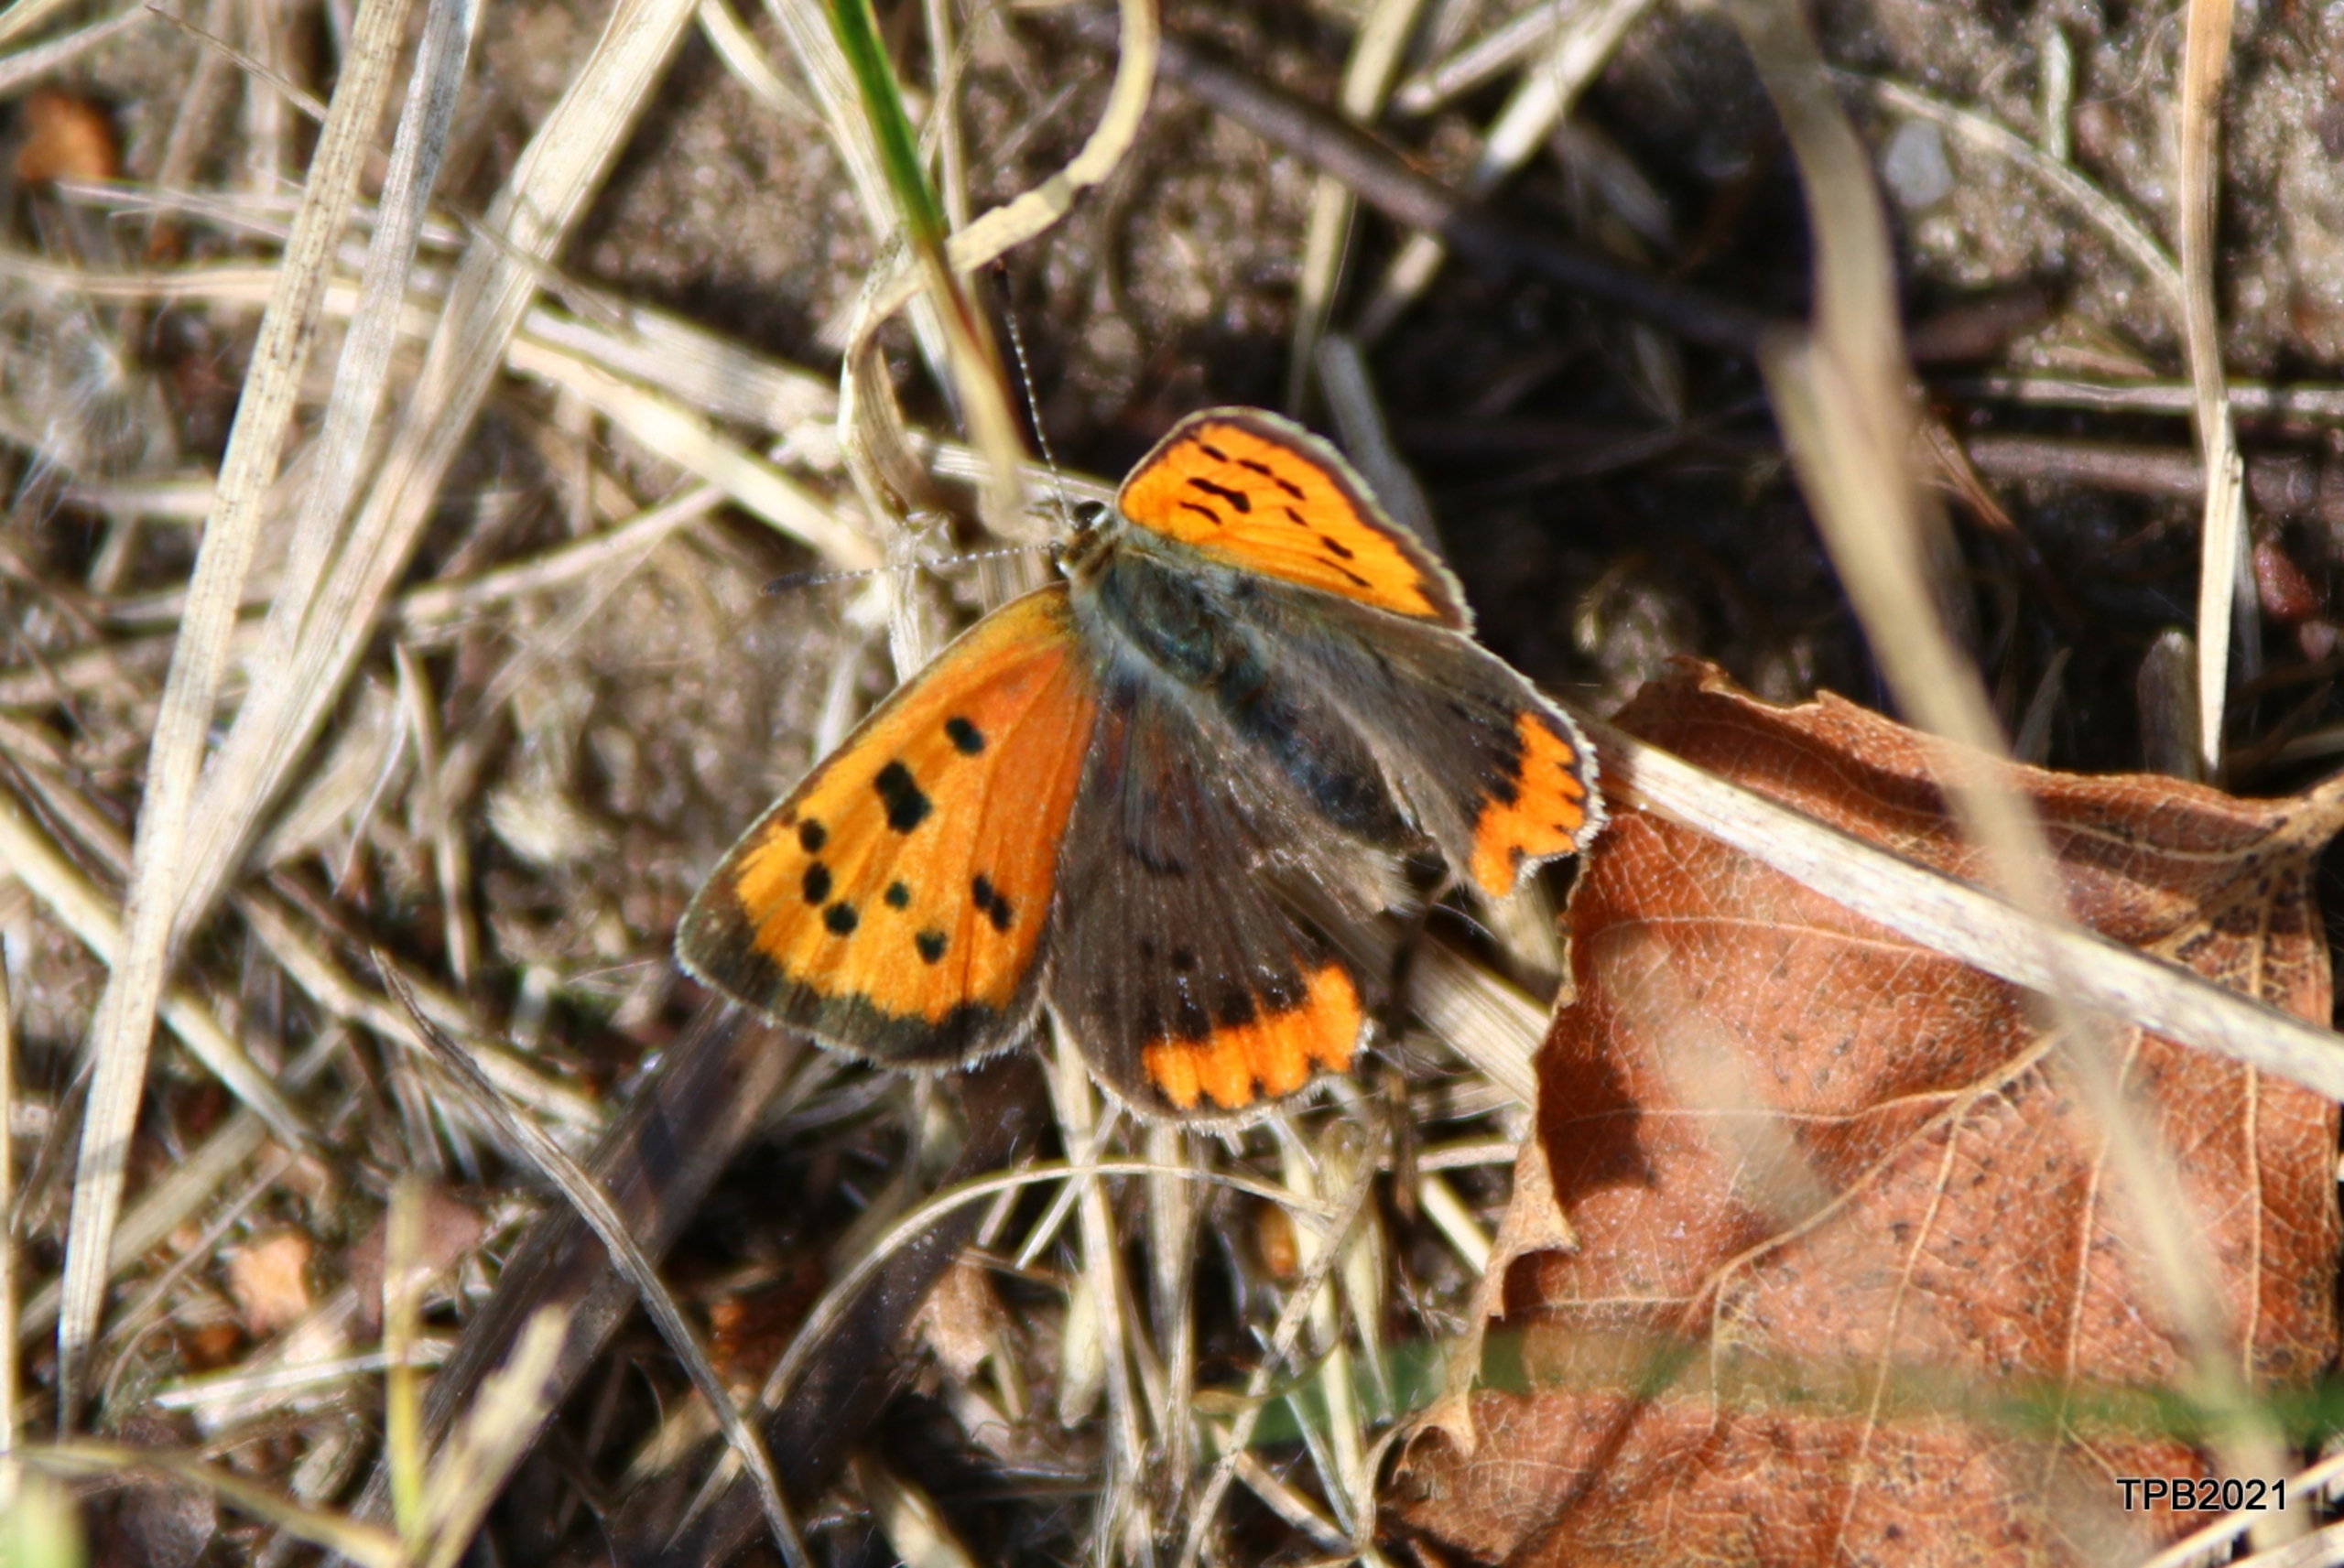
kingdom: Animalia
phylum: Arthropoda
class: Insecta
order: Lepidoptera
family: Lycaenidae
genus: Lycaena
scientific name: Lycaena phlaeas
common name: Lille ildfugl
